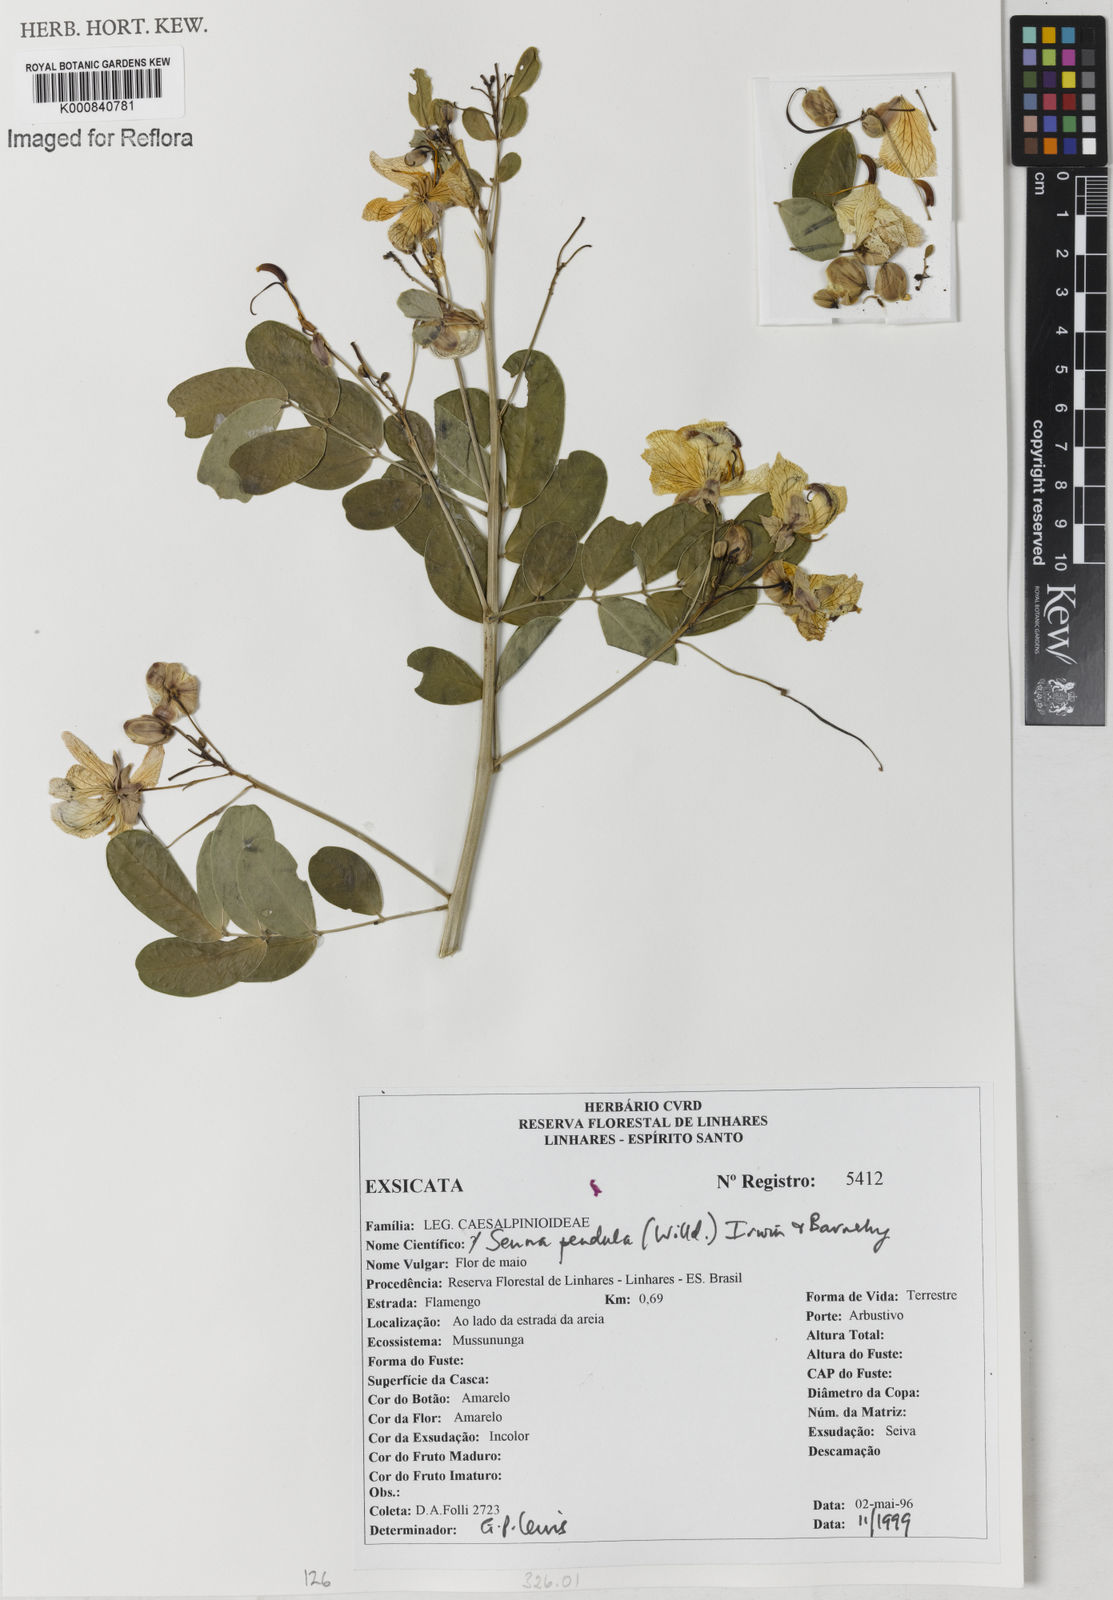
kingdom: Plantae
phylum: Tracheophyta
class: Magnoliopsida
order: Fabales
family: Fabaceae
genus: Senna
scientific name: Senna pendula
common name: Easter cassia
